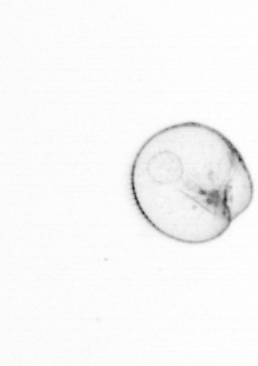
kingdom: Chromista
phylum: Myzozoa
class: Dinophyceae
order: Noctilucales
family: Noctilucaceae
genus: Noctiluca
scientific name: Noctiluca scintillans
